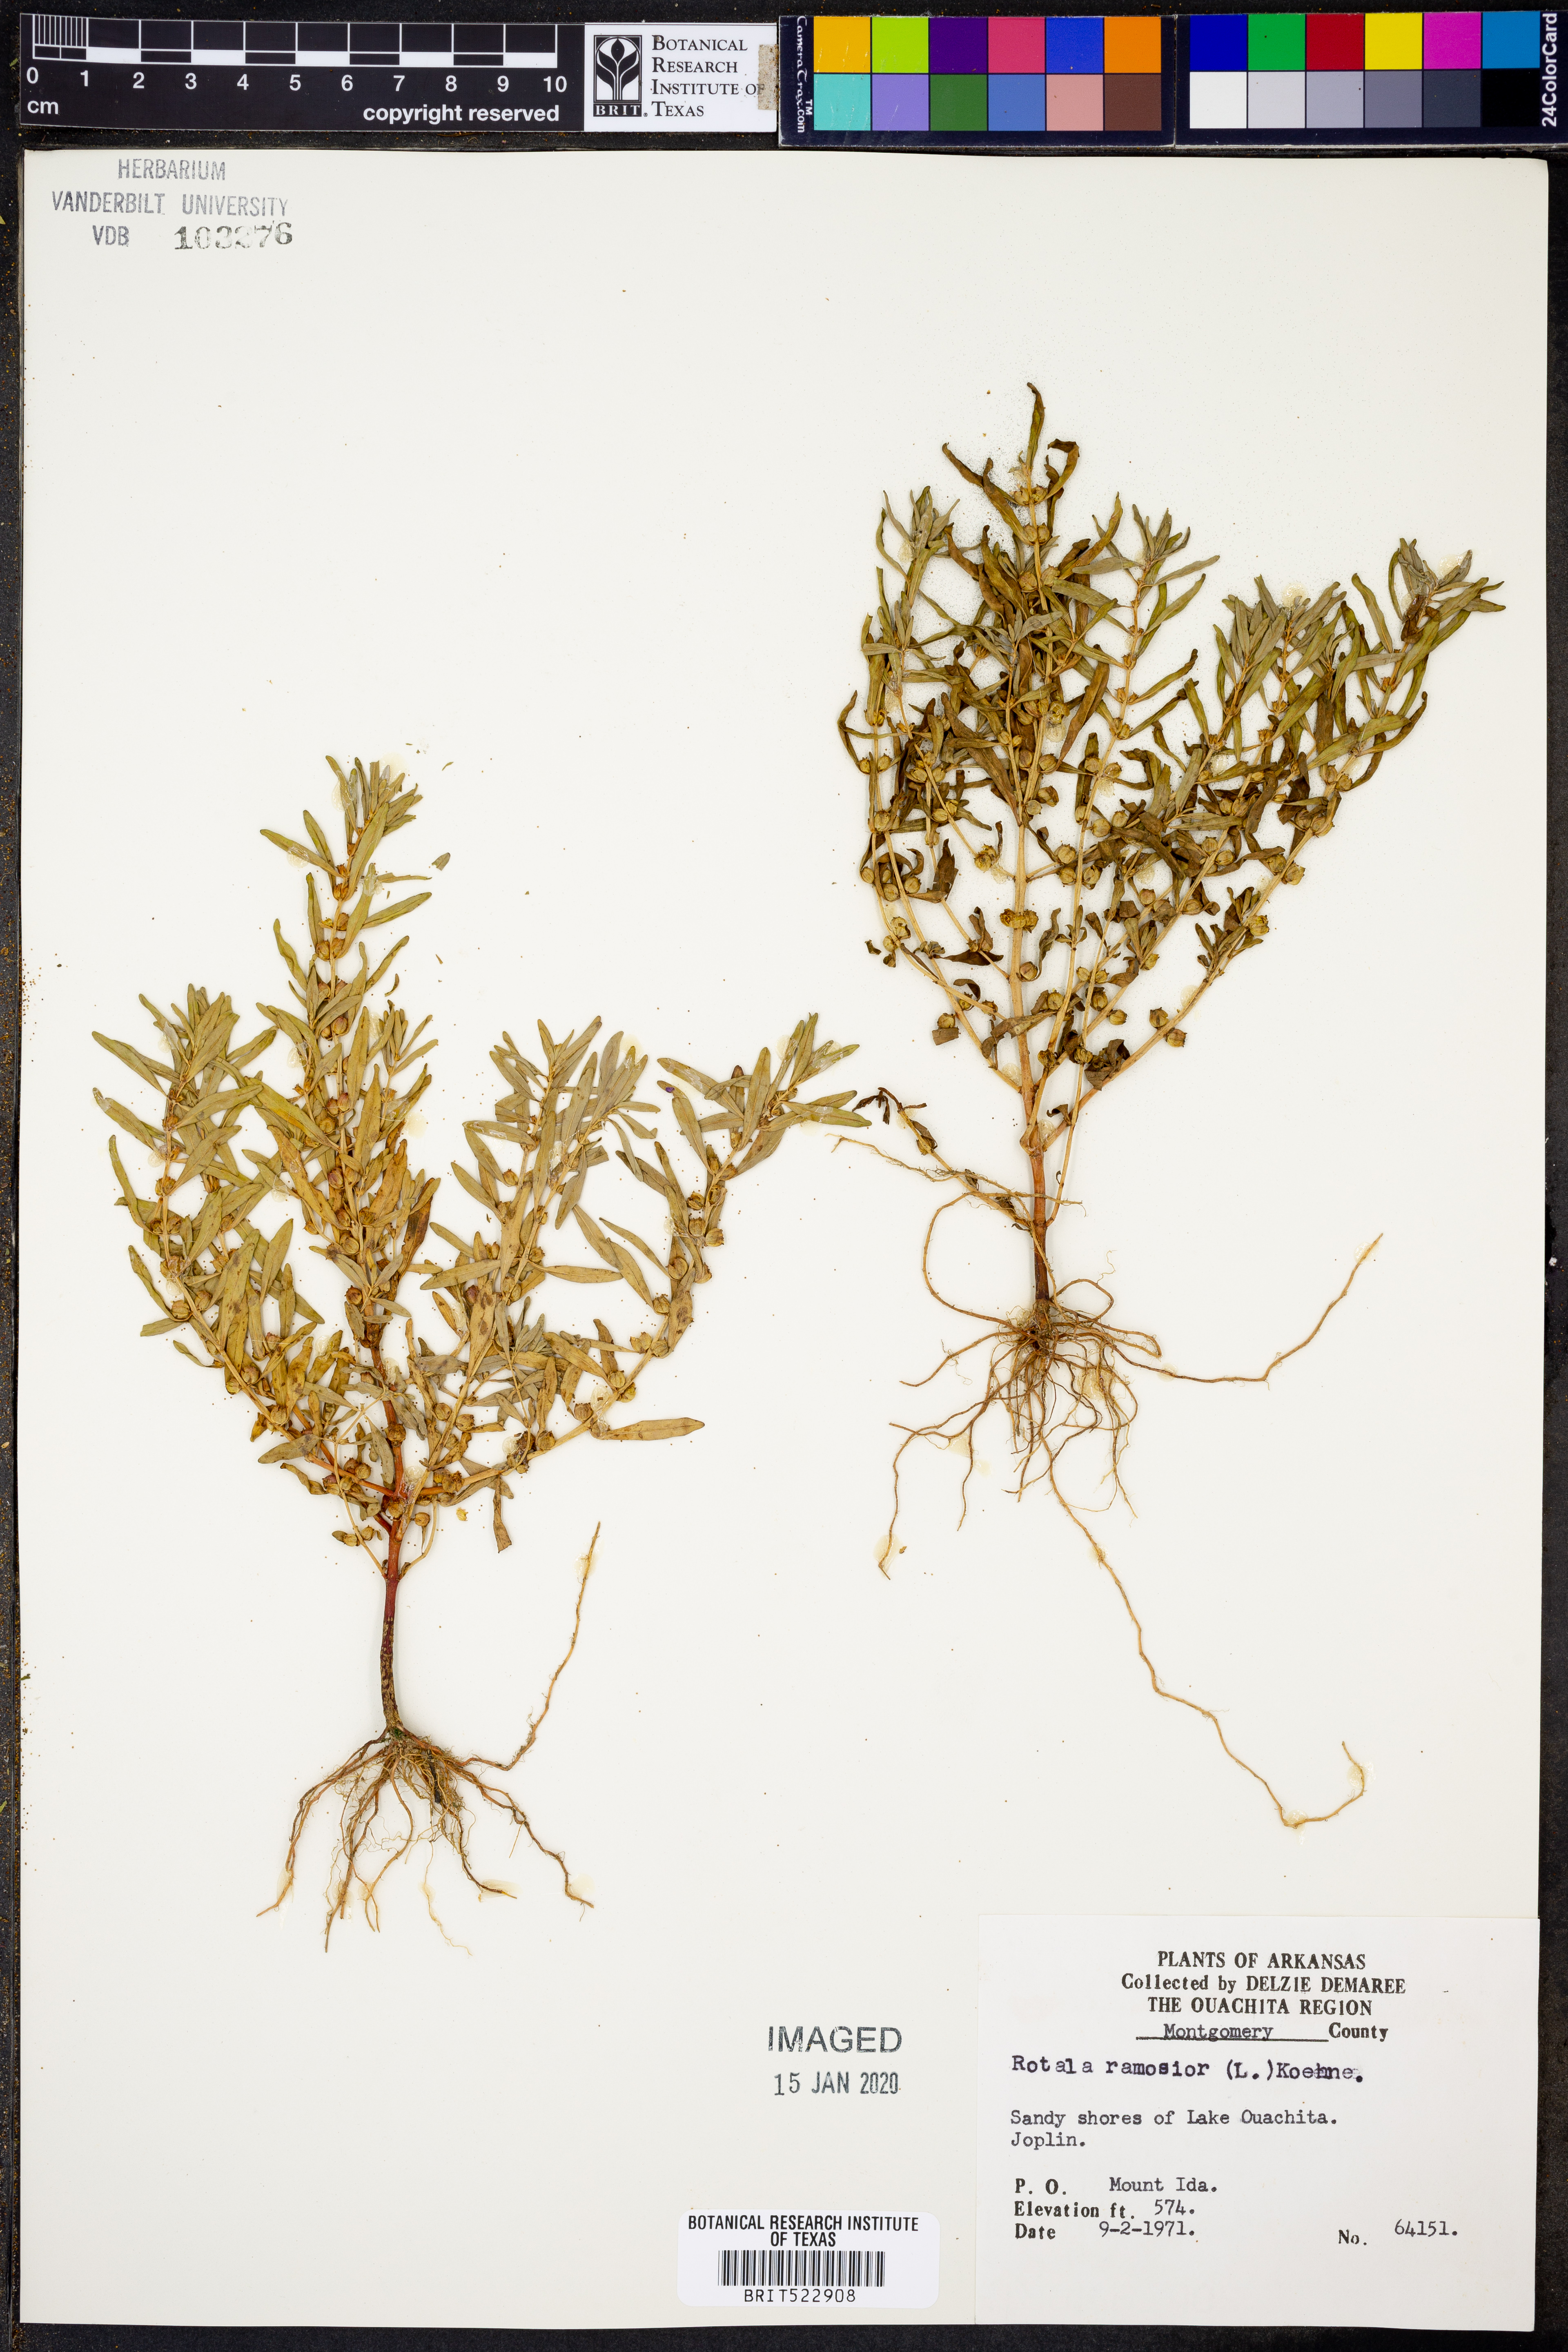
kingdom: Plantae
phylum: Tracheophyta
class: Magnoliopsida
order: Myrtales
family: Lythraceae
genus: Rotala
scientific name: Rotala ramosior
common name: Lowland rotala
